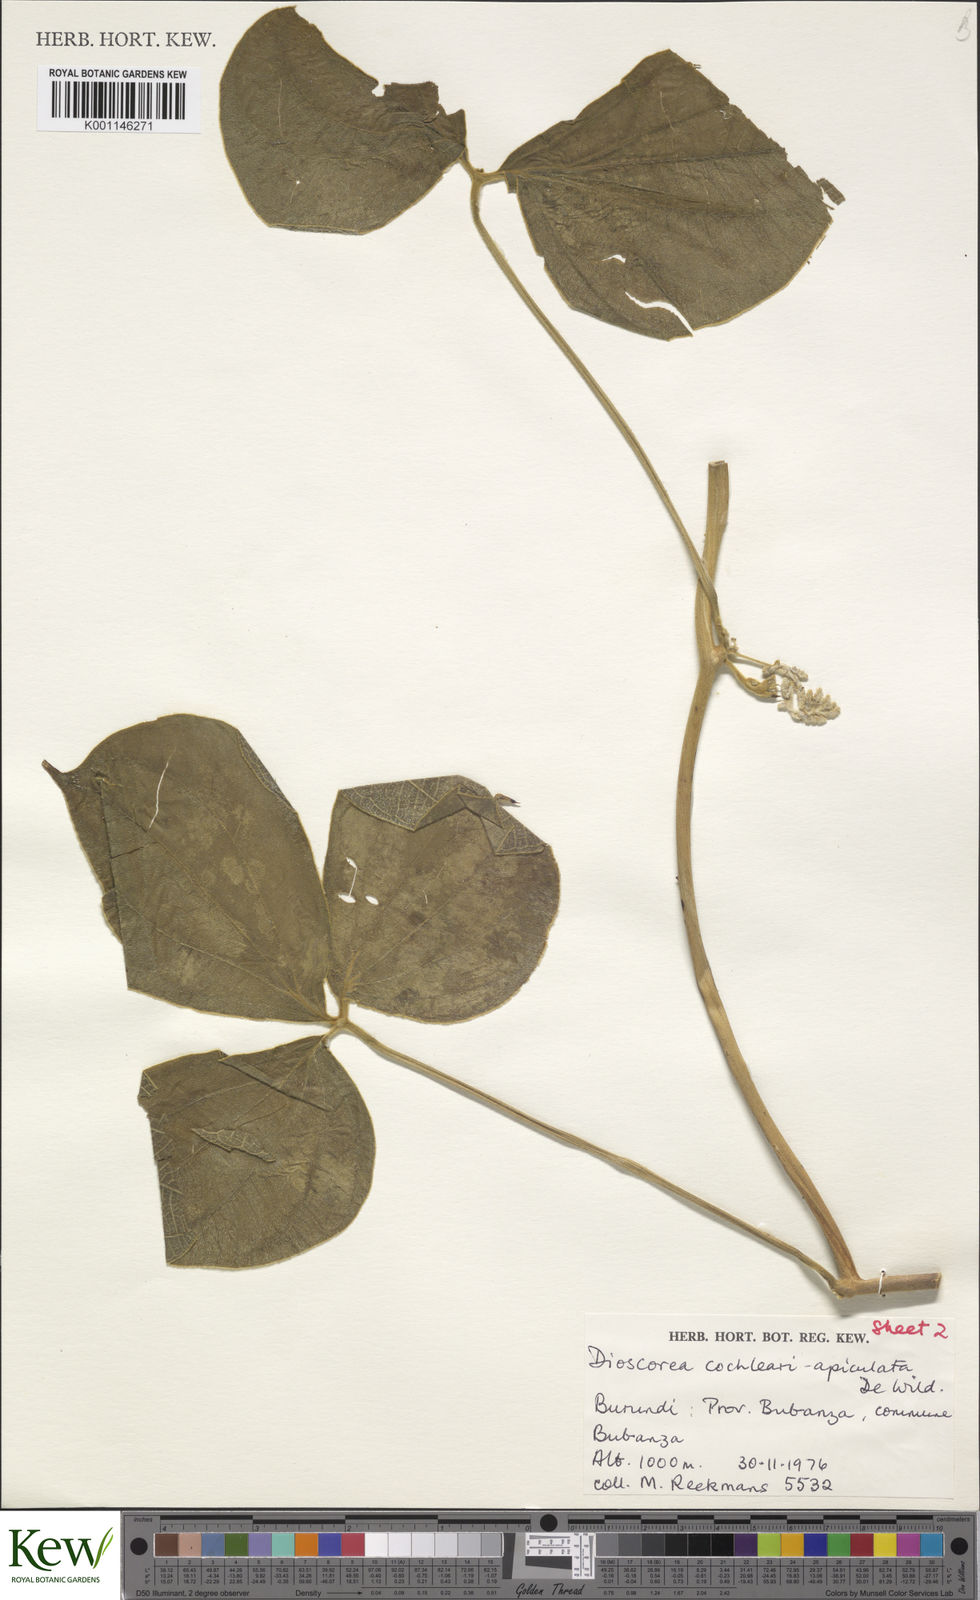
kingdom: Plantae
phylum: Tracheophyta
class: Liliopsida
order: Dioscoreales
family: Dioscoreaceae
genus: Dioscorea
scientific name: Dioscorea cochleariapiculata
